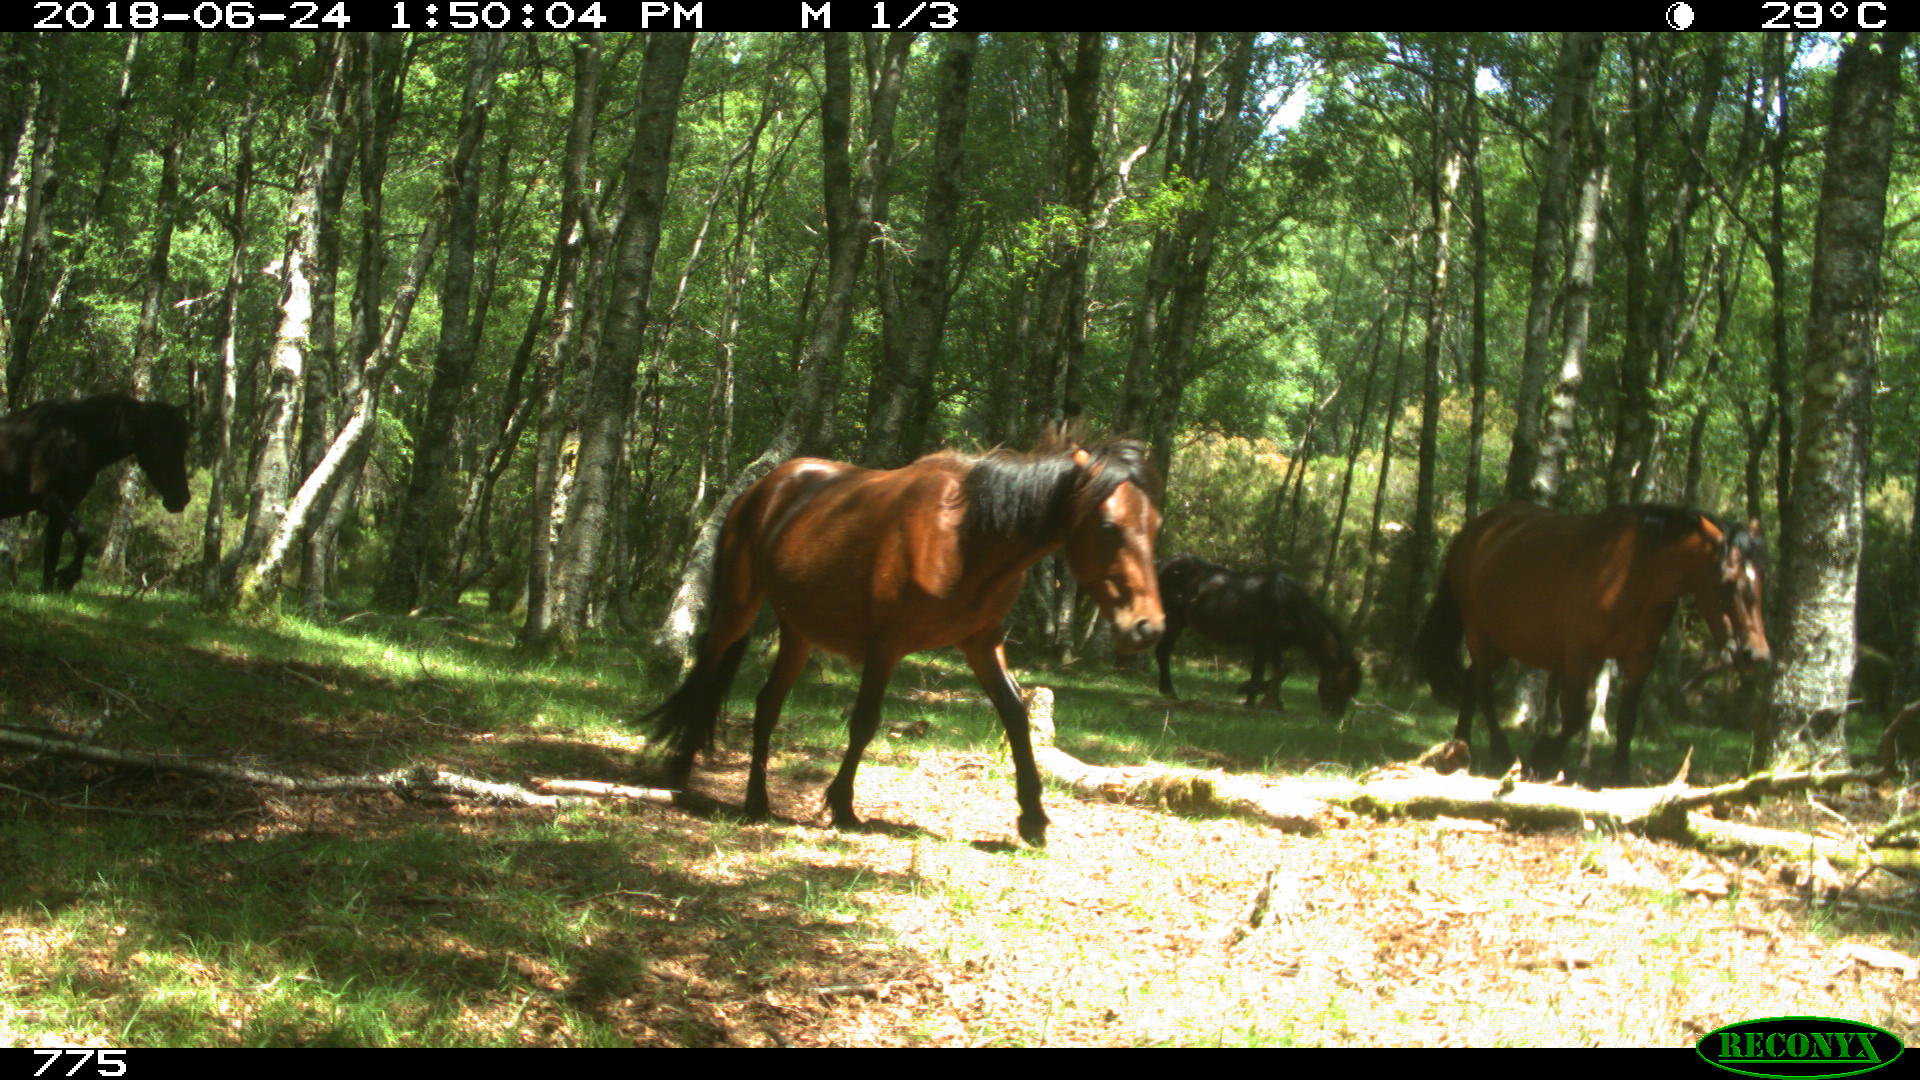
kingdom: Animalia
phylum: Chordata
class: Mammalia
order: Perissodactyla
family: Equidae
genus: Equus
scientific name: Equus caballus
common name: Horse
